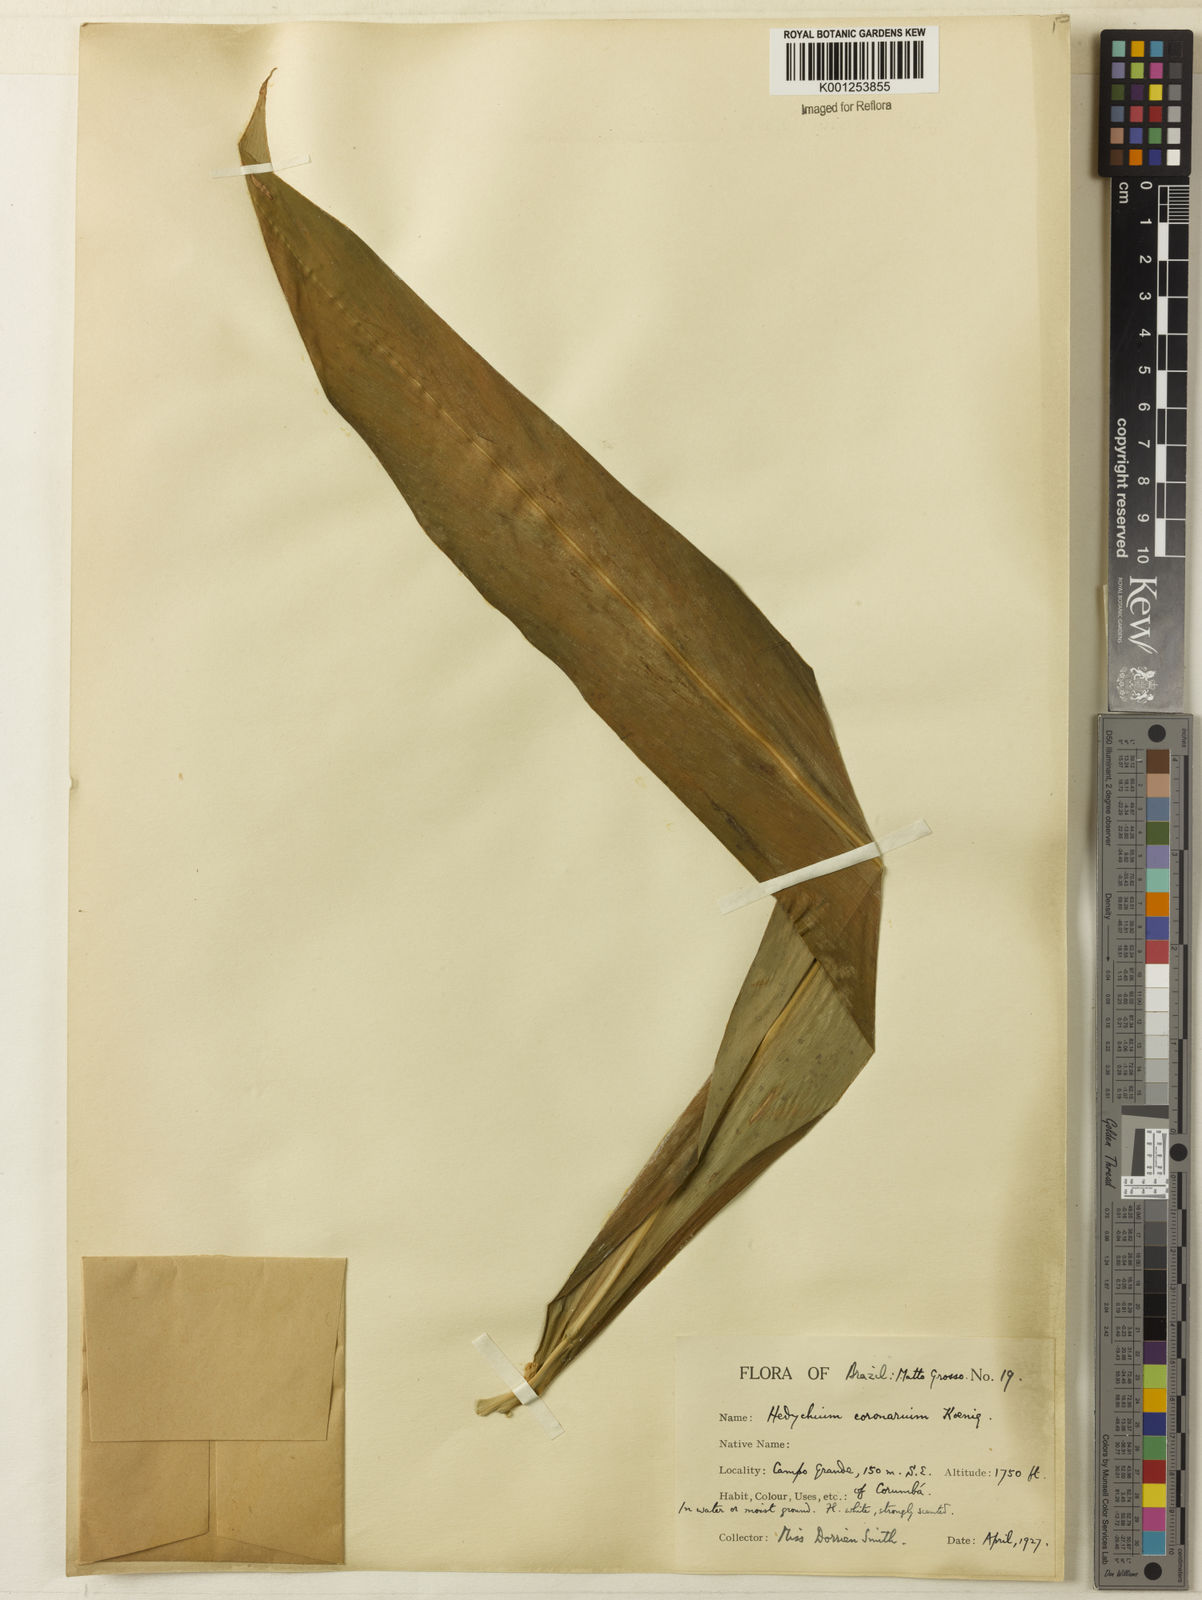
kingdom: Plantae
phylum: Tracheophyta
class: Liliopsida
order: Zingiberales
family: Zingiberaceae
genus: Hedychium
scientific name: Hedychium coronarium
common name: White garland-lily
